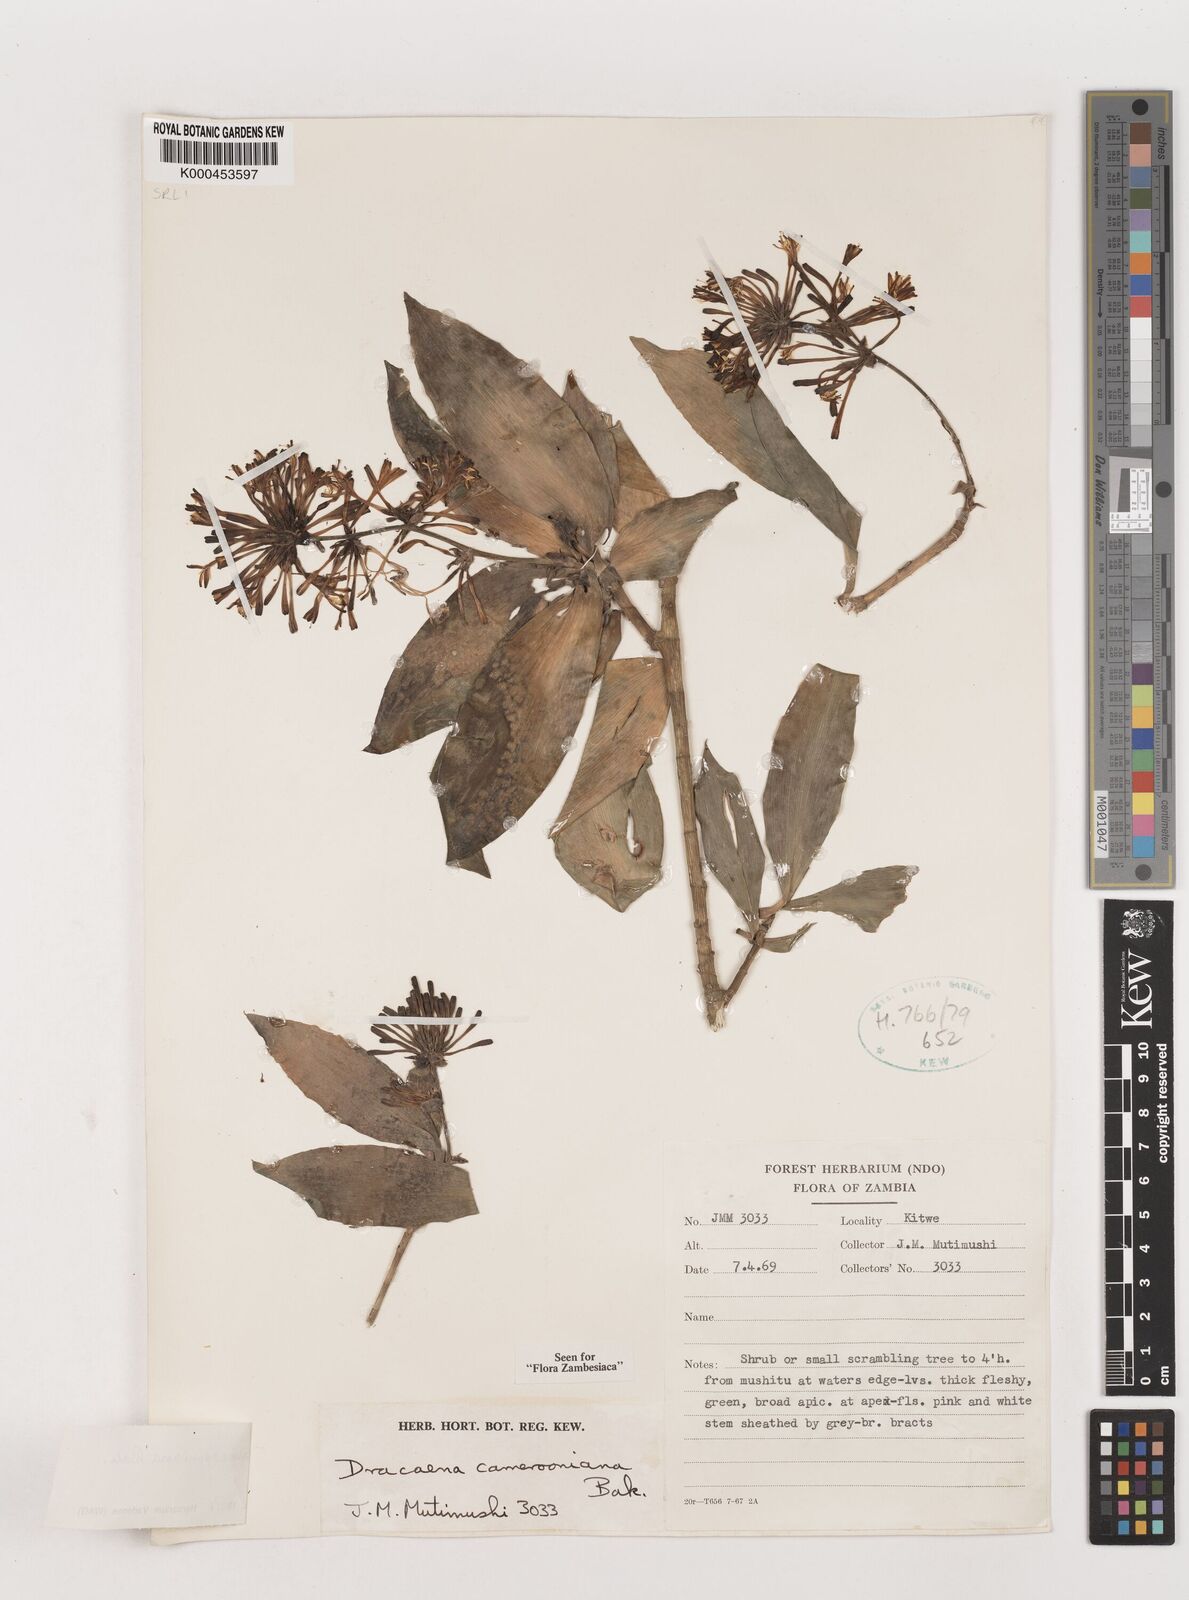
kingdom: Plantae
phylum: Tracheophyta
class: Liliopsida
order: Asparagales
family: Asparagaceae
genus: Dracaena
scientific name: Dracaena camerooniana
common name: Dragon tree
